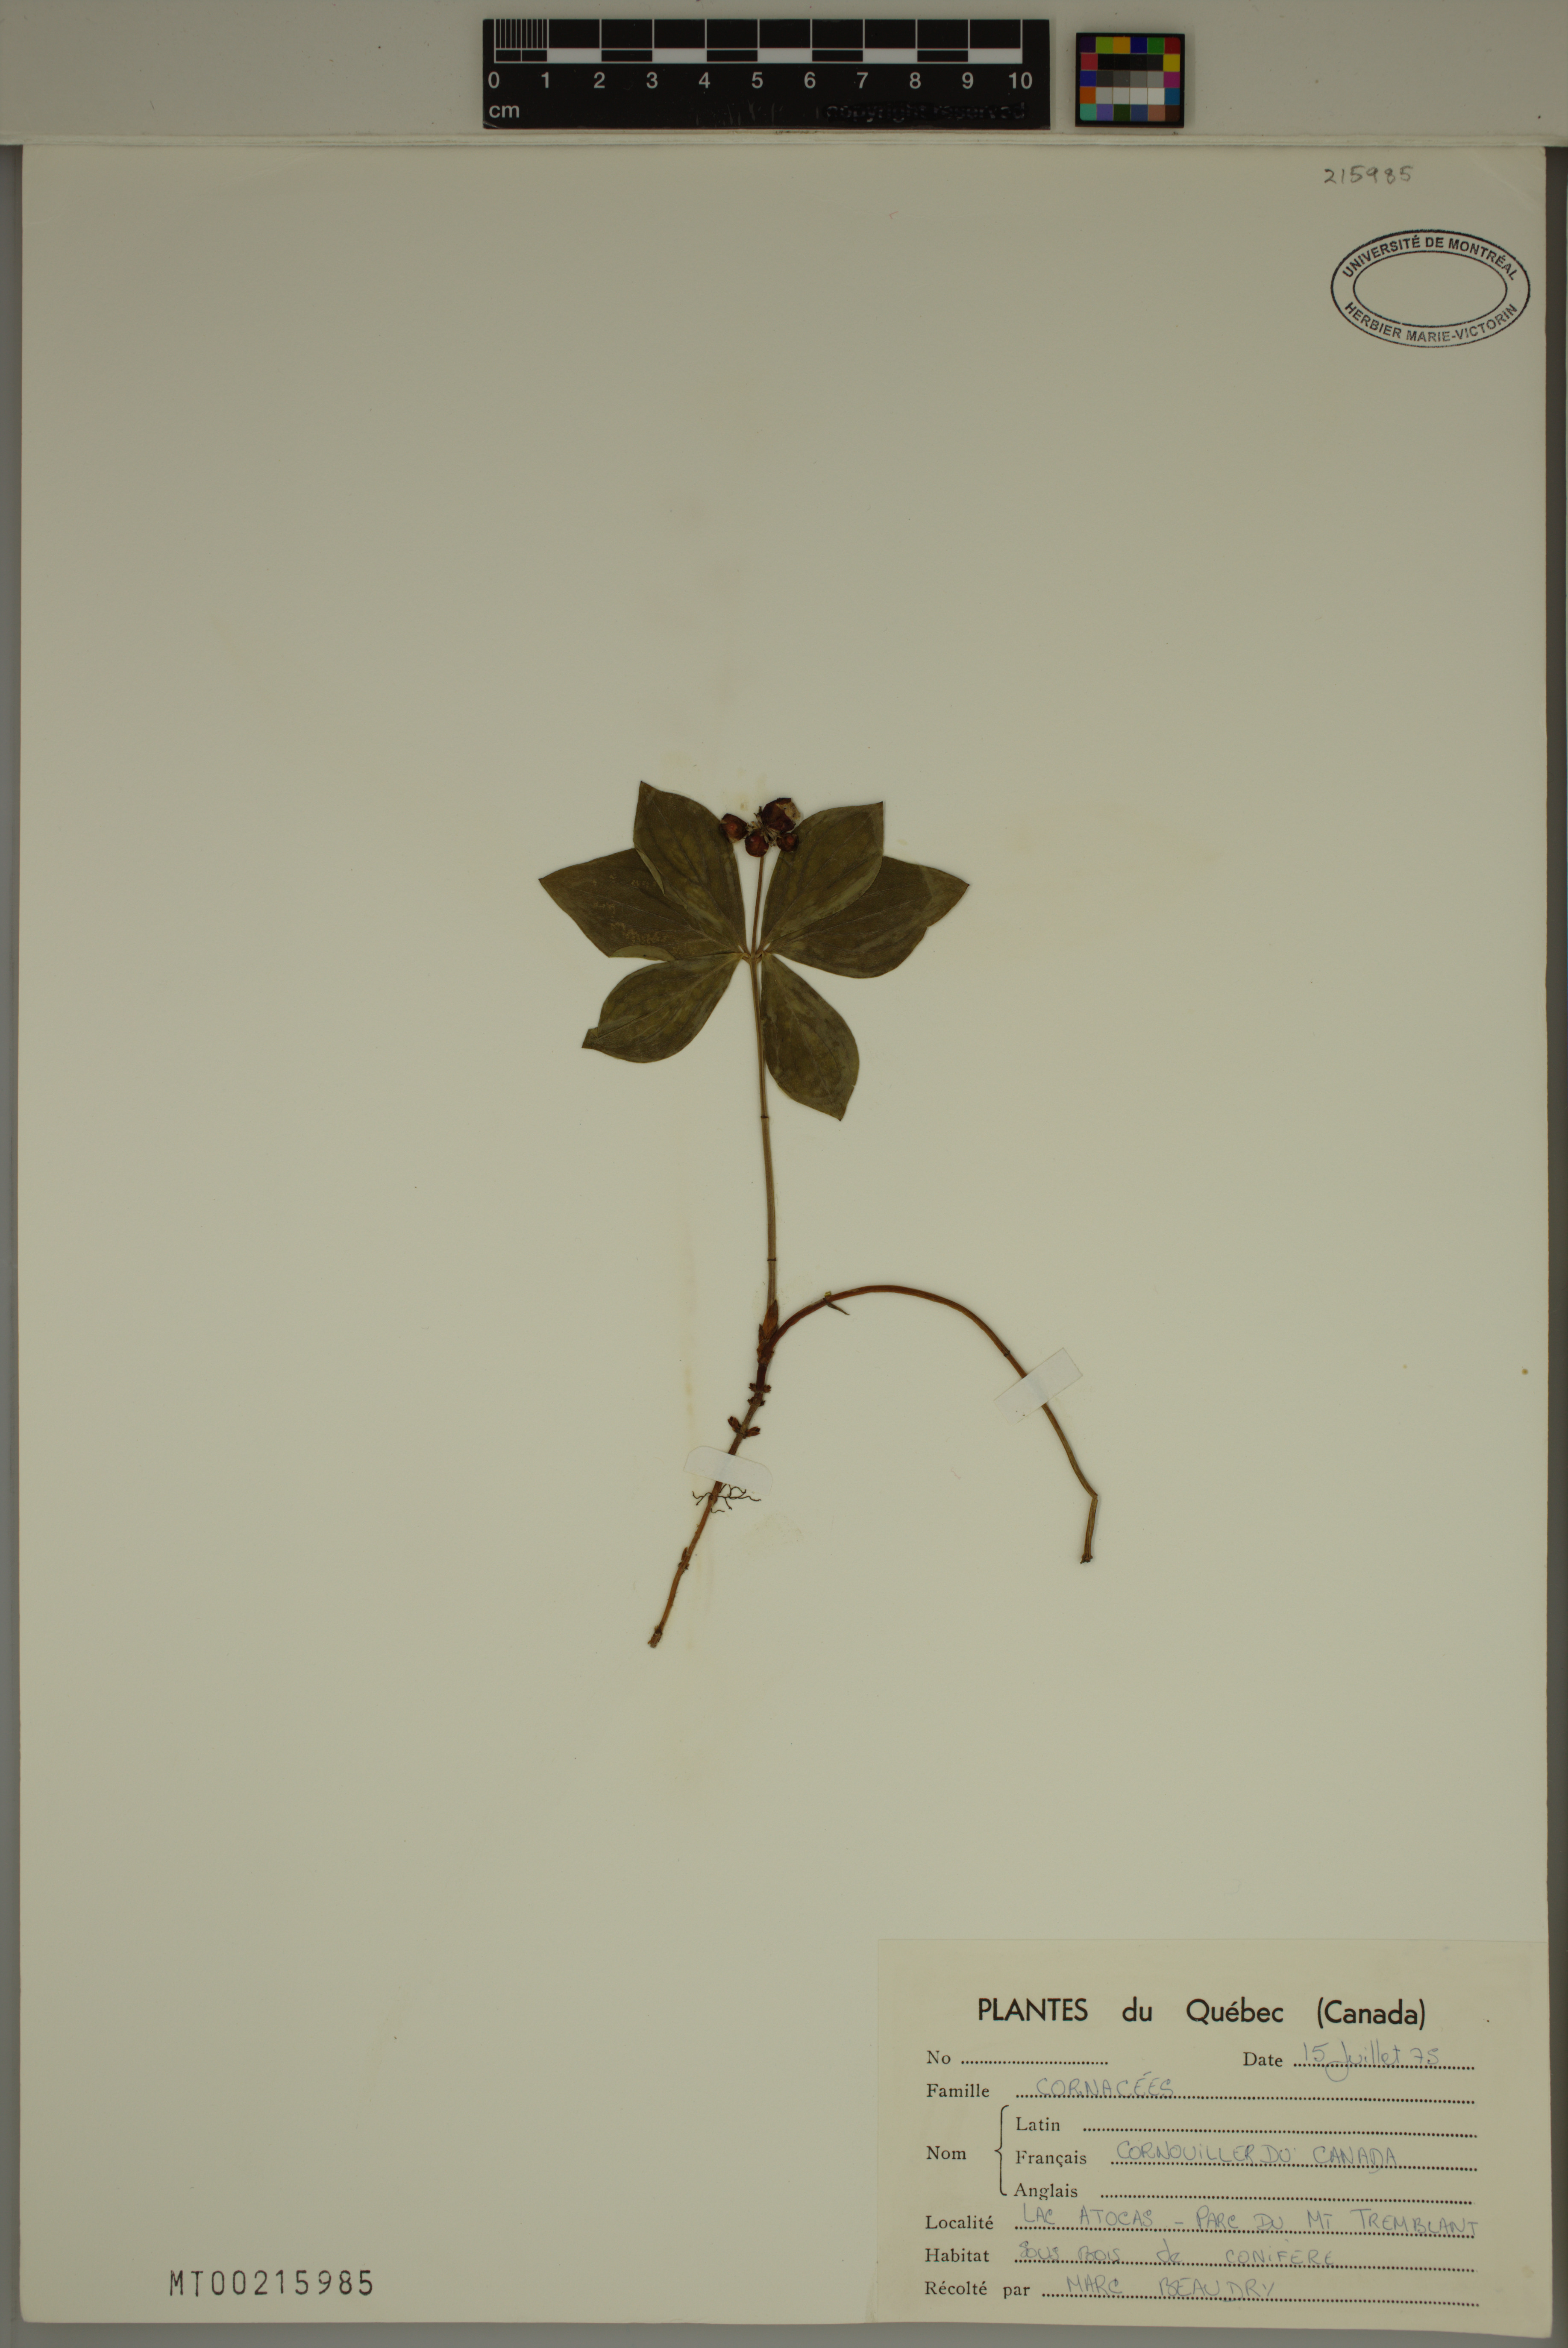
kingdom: Plantae
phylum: Tracheophyta
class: Magnoliopsida
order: Cornales
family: Cornaceae
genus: Cornus
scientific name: Cornus canadensis
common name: Creeping dogwood
